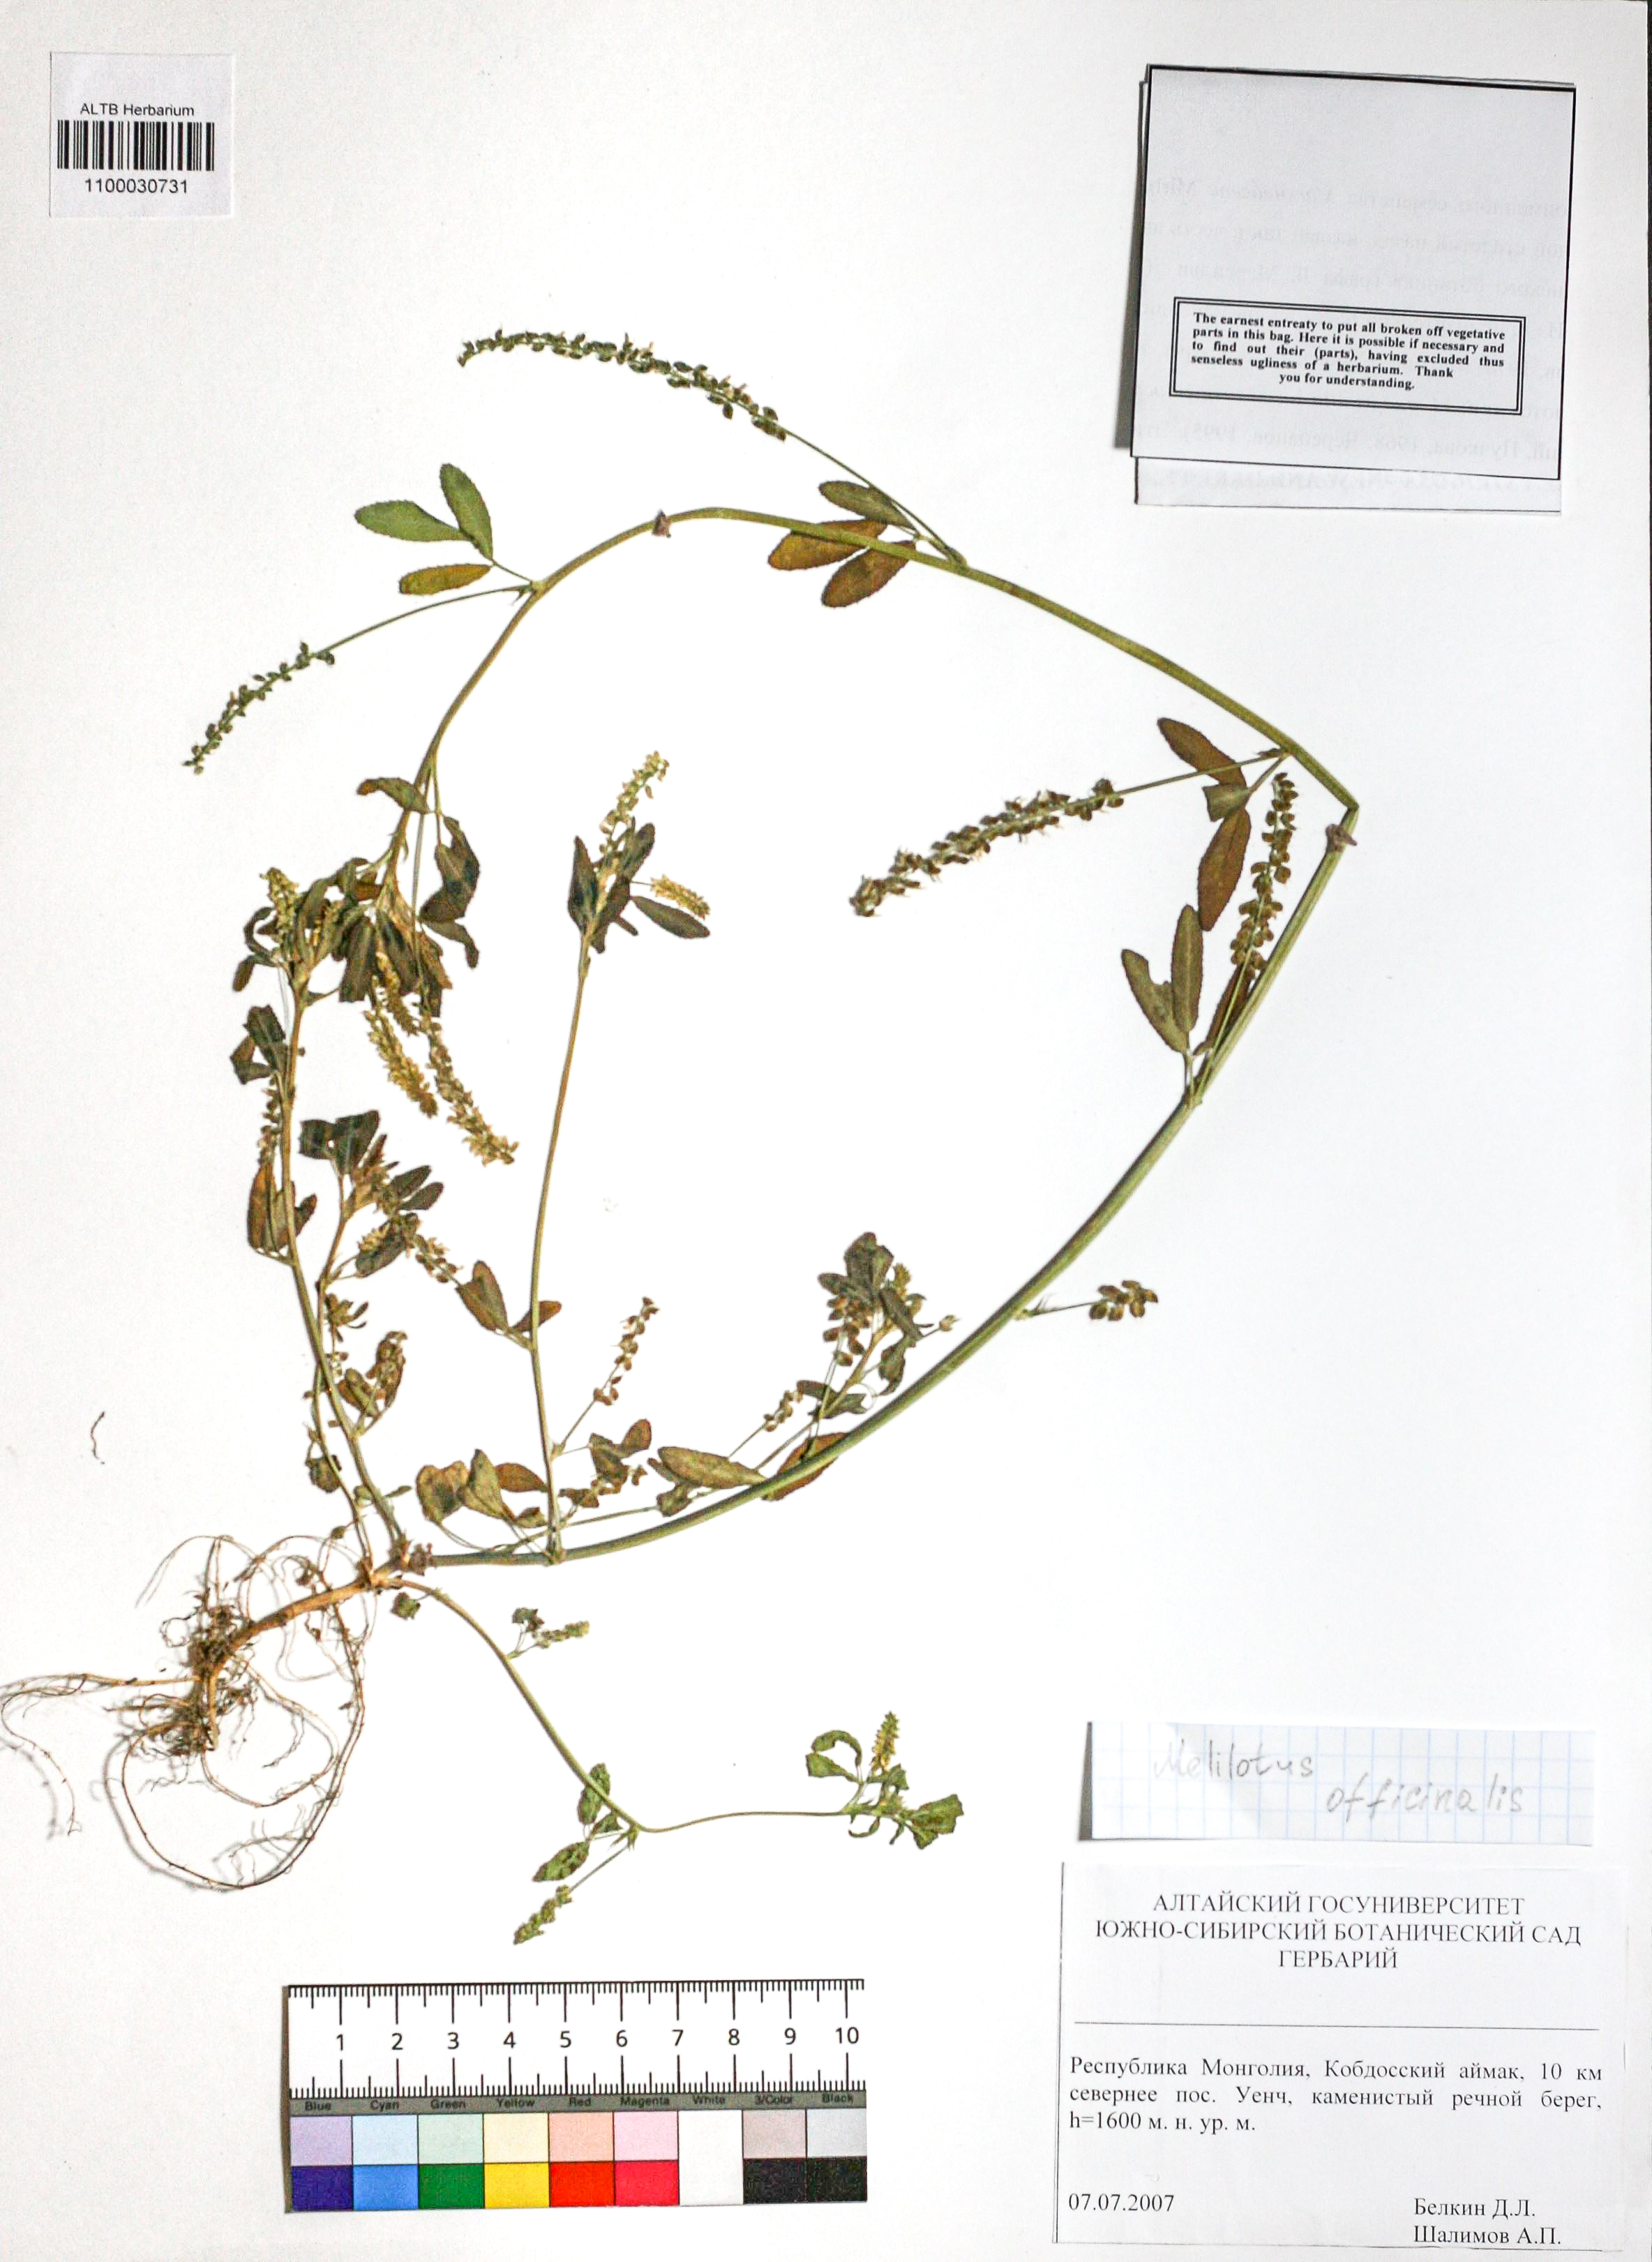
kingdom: Plantae
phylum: Tracheophyta
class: Magnoliopsida
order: Fabales
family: Fabaceae
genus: Melilotus
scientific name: Melilotus officinalis
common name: Sweetclover
